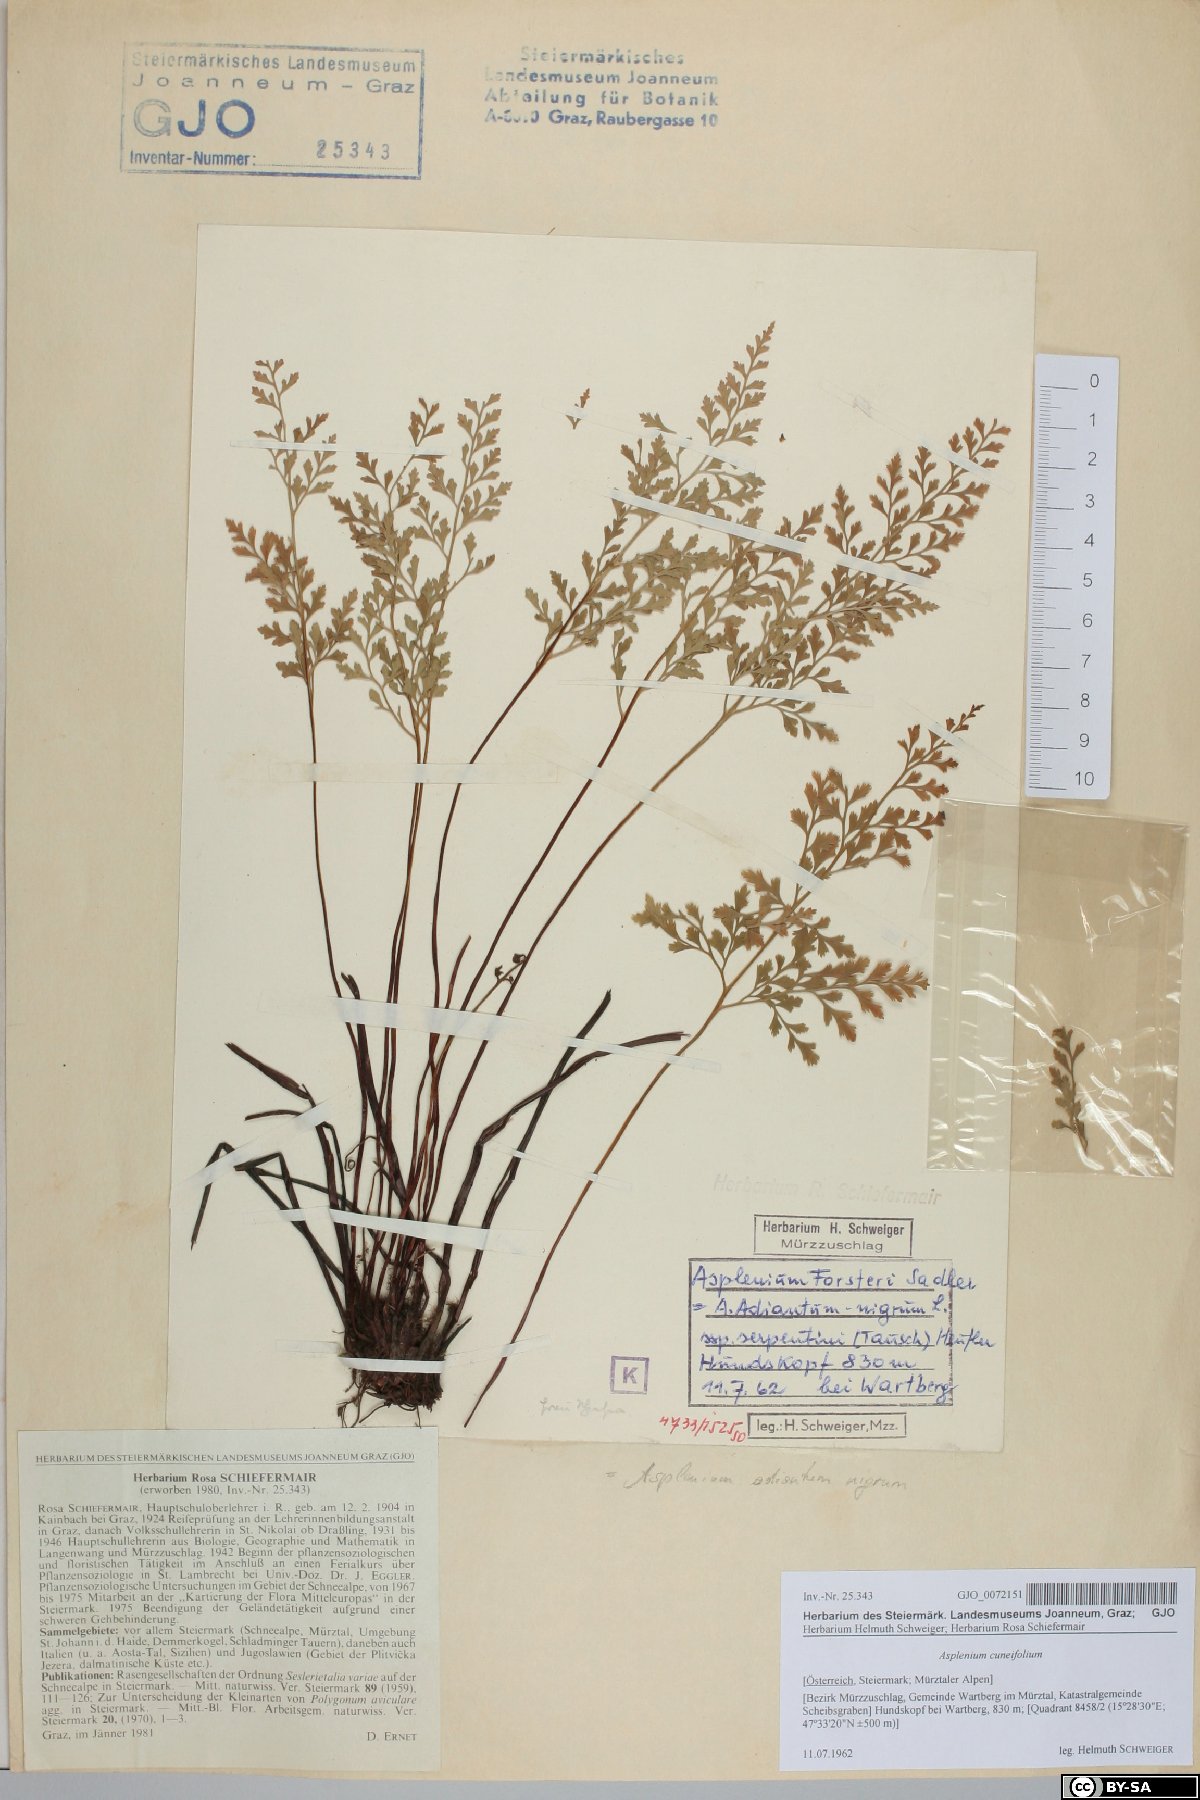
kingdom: Plantae
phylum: Tracheophyta
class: Polypodiopsida
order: Polypodiales
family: Aspleniaceae
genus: Asplenium
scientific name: Asplenium cuneifolium
